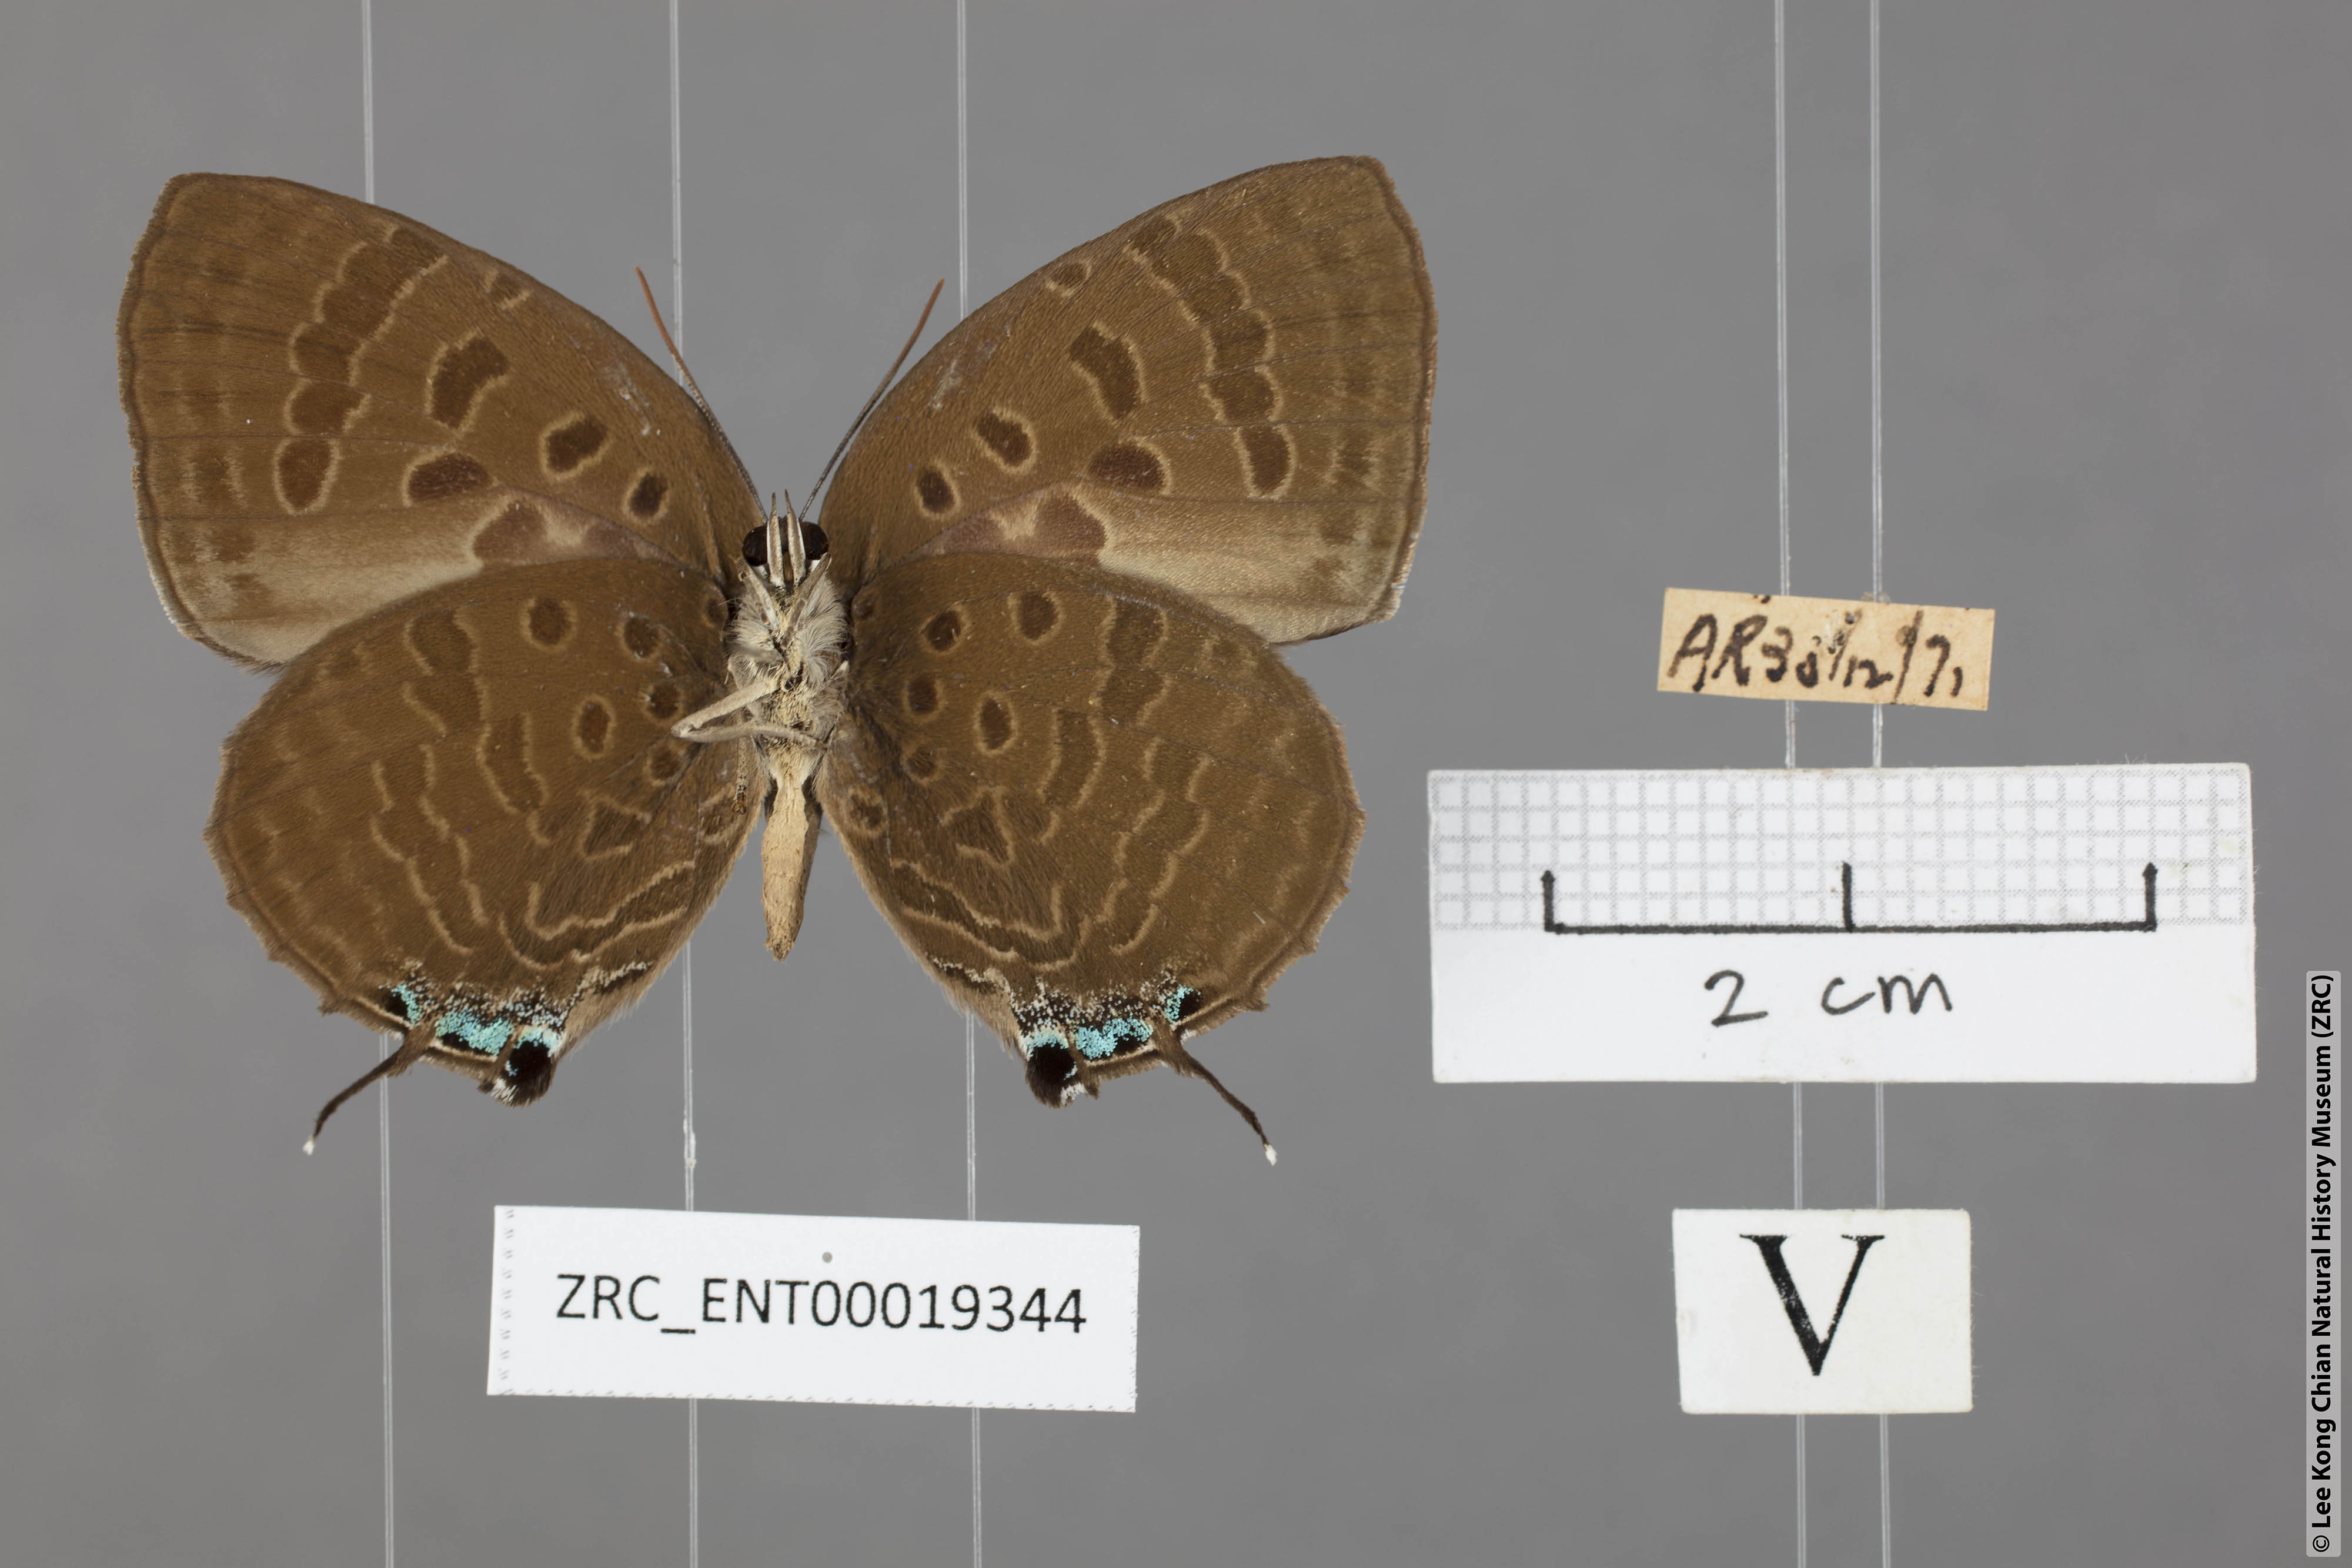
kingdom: Animalia
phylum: Arthropoda
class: Insecta
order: Lepidoptera
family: Lycaenidae
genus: Arhopala
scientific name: Arhopala cleander
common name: Large mergui oakblue
